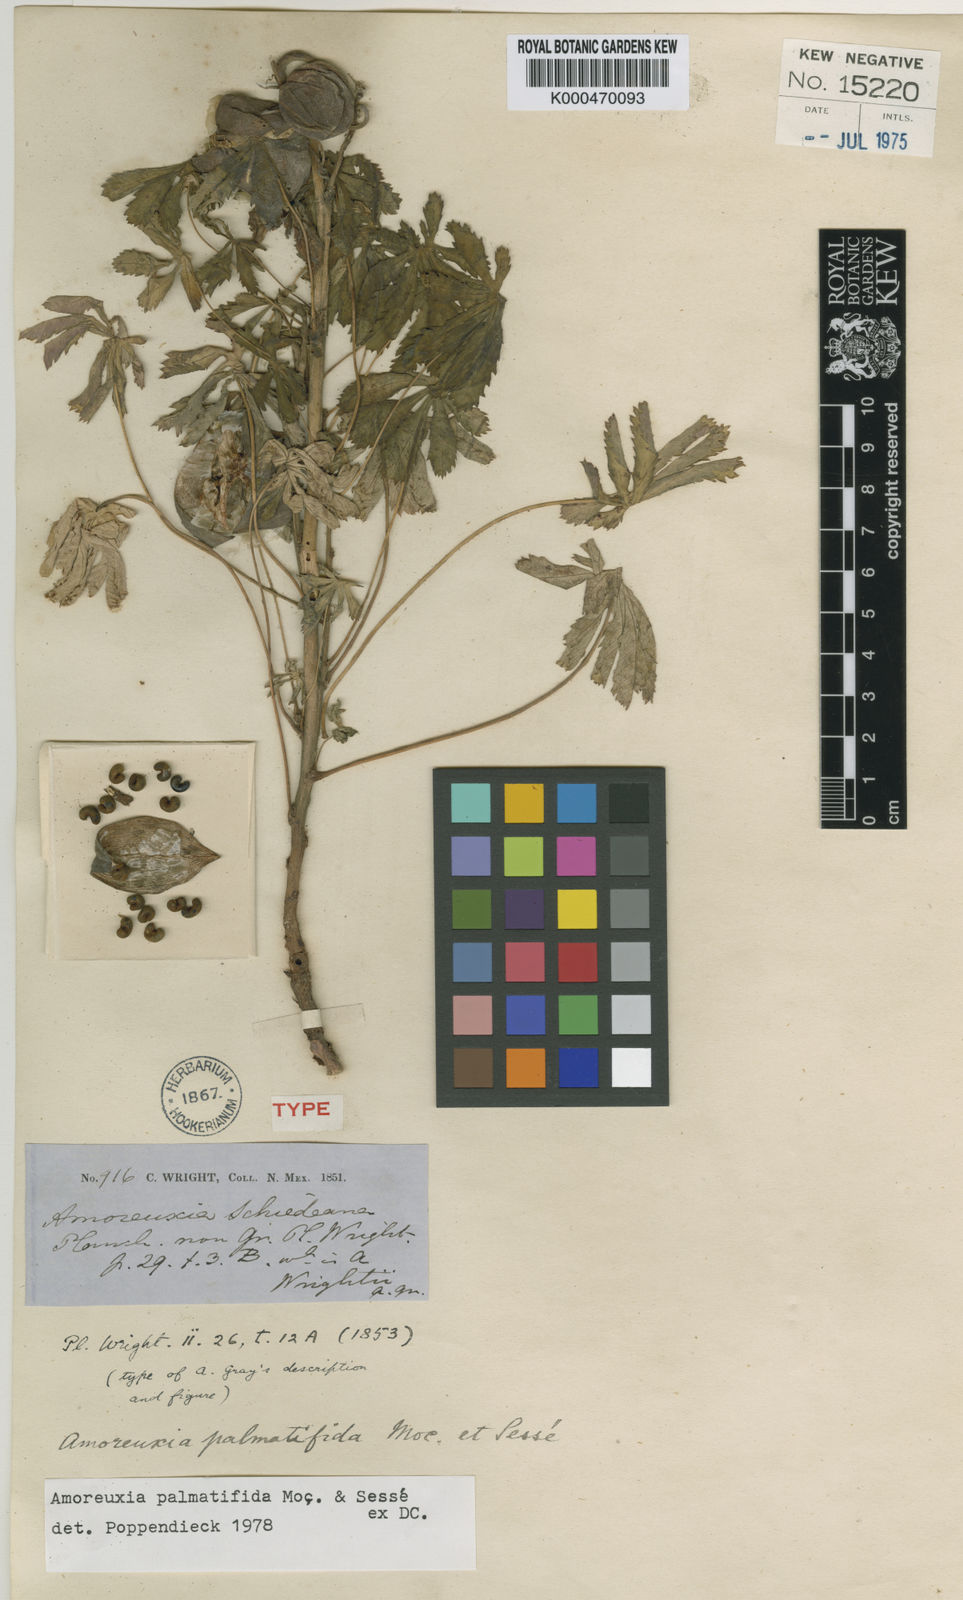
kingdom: Plantae
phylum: Tracheophyta
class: Magnoliopsida
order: Caryophyllales
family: Amaranthaceae
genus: Amoreuxia
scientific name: Amoreuxia
